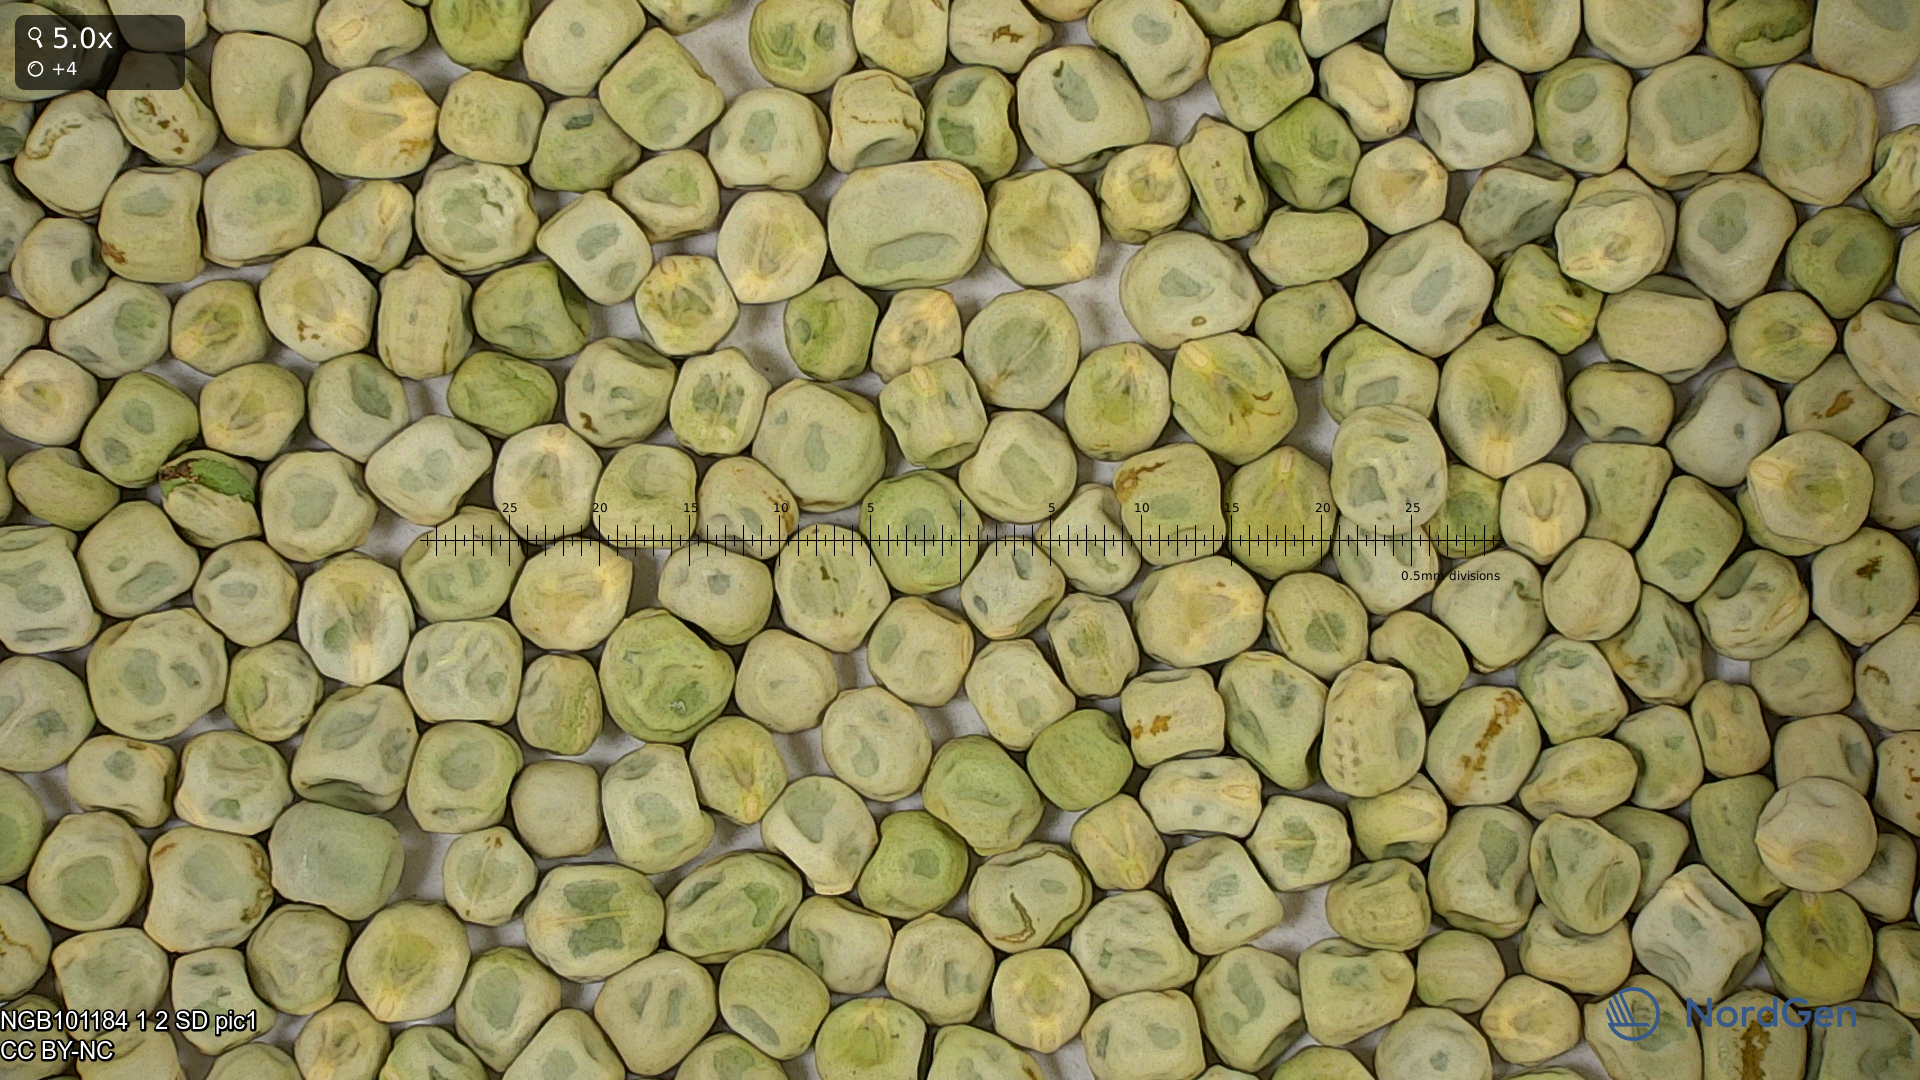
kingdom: Plantae
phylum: Tracheophyta
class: Magnoliopsida
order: Fabales
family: Fabaceae
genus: Lathyrus
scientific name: Lathyrus oleraceus
